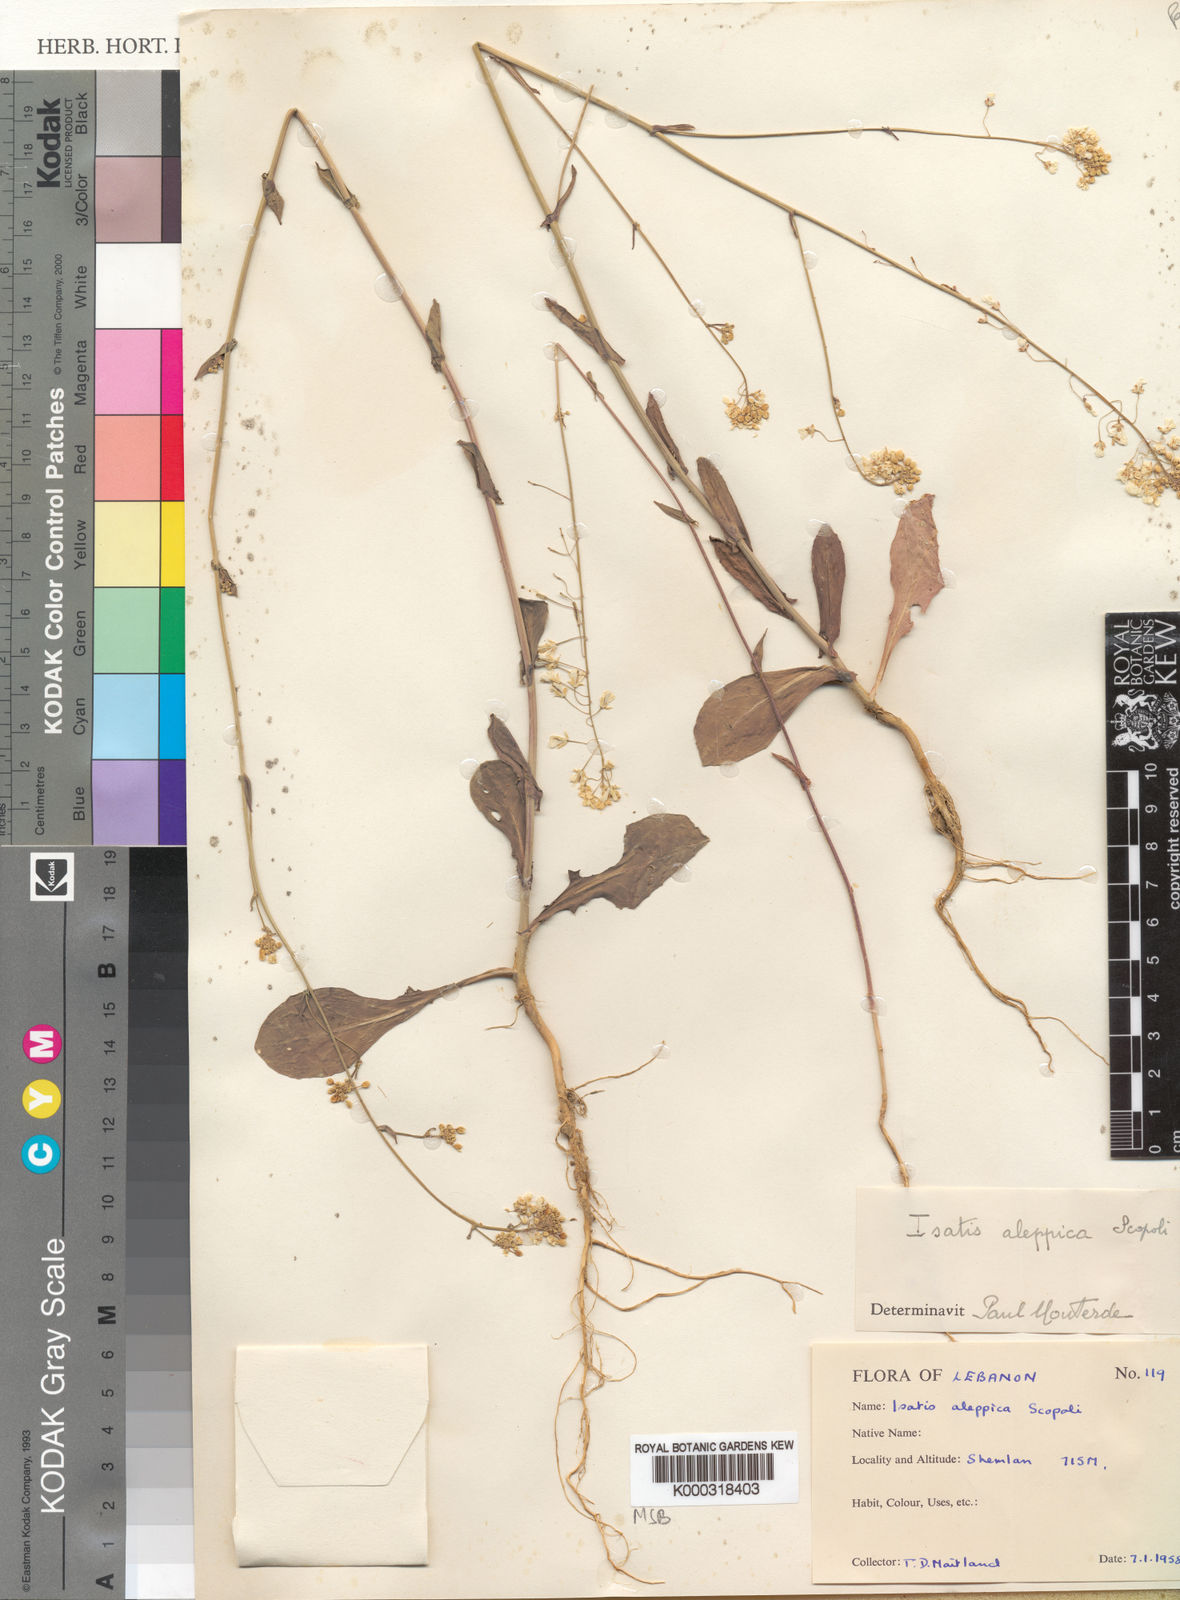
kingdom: Plantae
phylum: Tracheophyta
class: Magnoliopsida
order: Brassicales
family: Brassicaceae
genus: Isatis
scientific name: Isatis lusitanica
